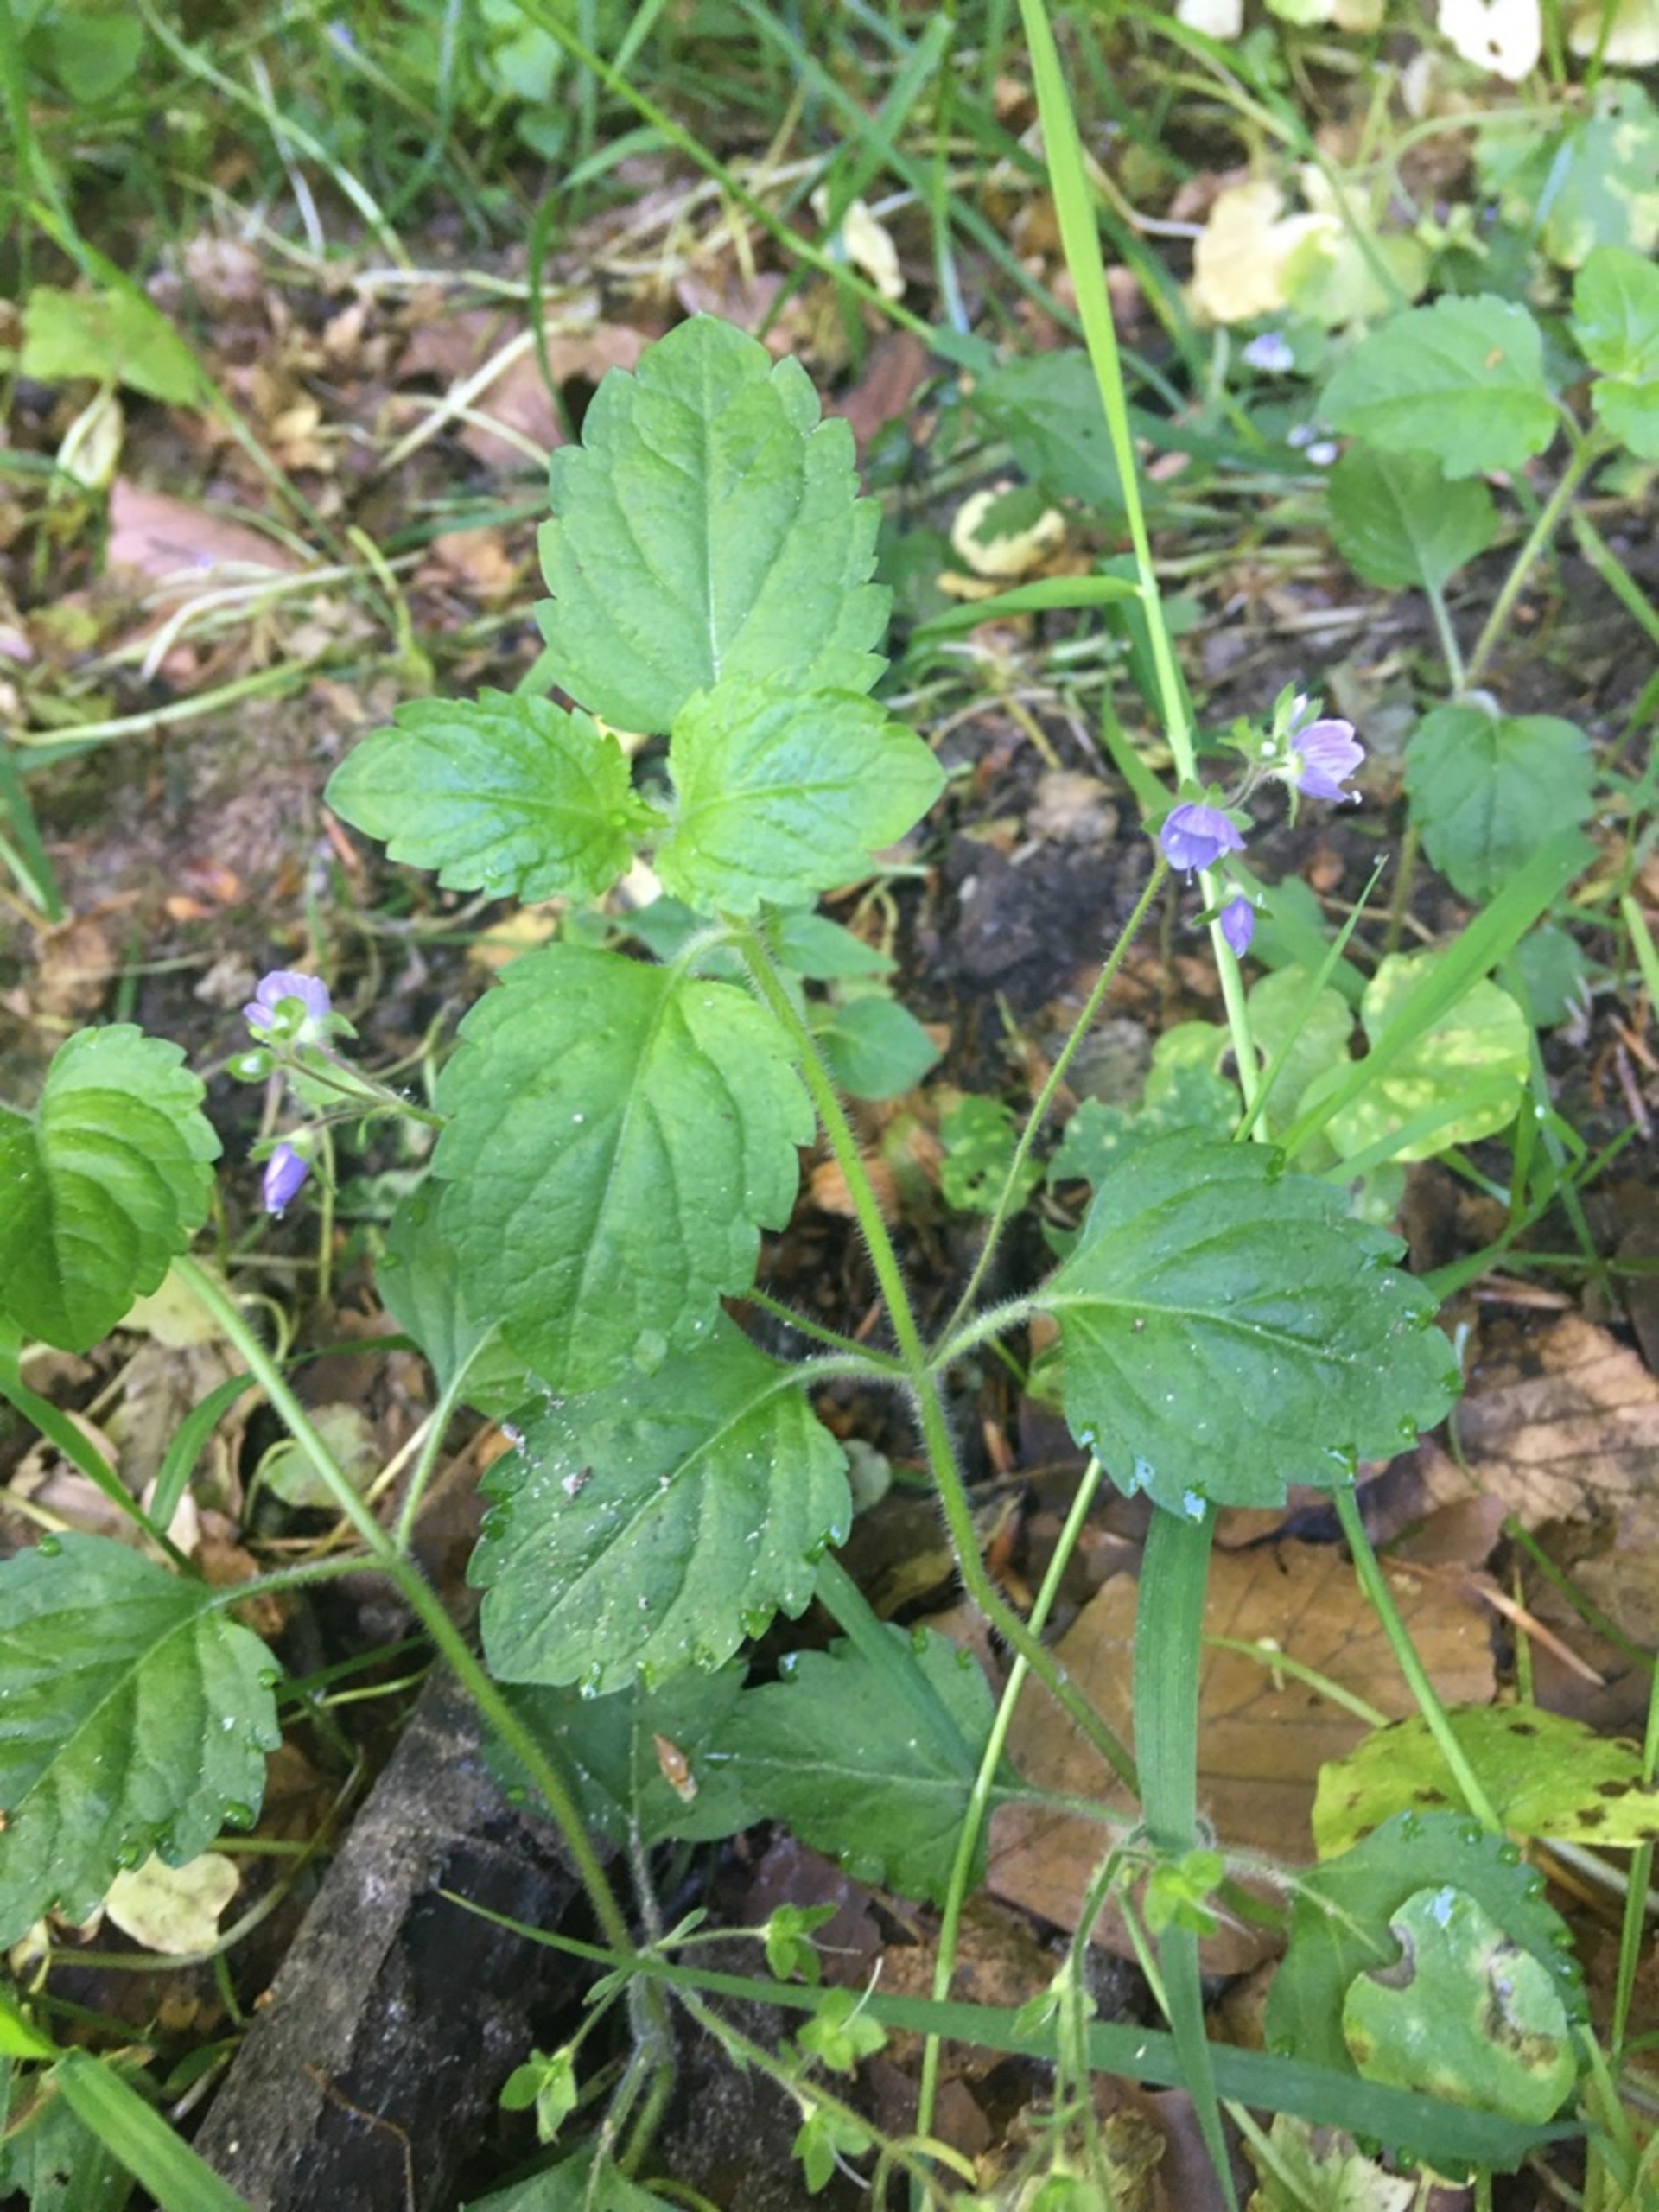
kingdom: Plantae
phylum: Tracheophyta
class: Magnoliopsida
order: Lamiales
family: Plantaginaceae
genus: Veronica
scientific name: Veronica montana
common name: Bjerg-ærenpris
